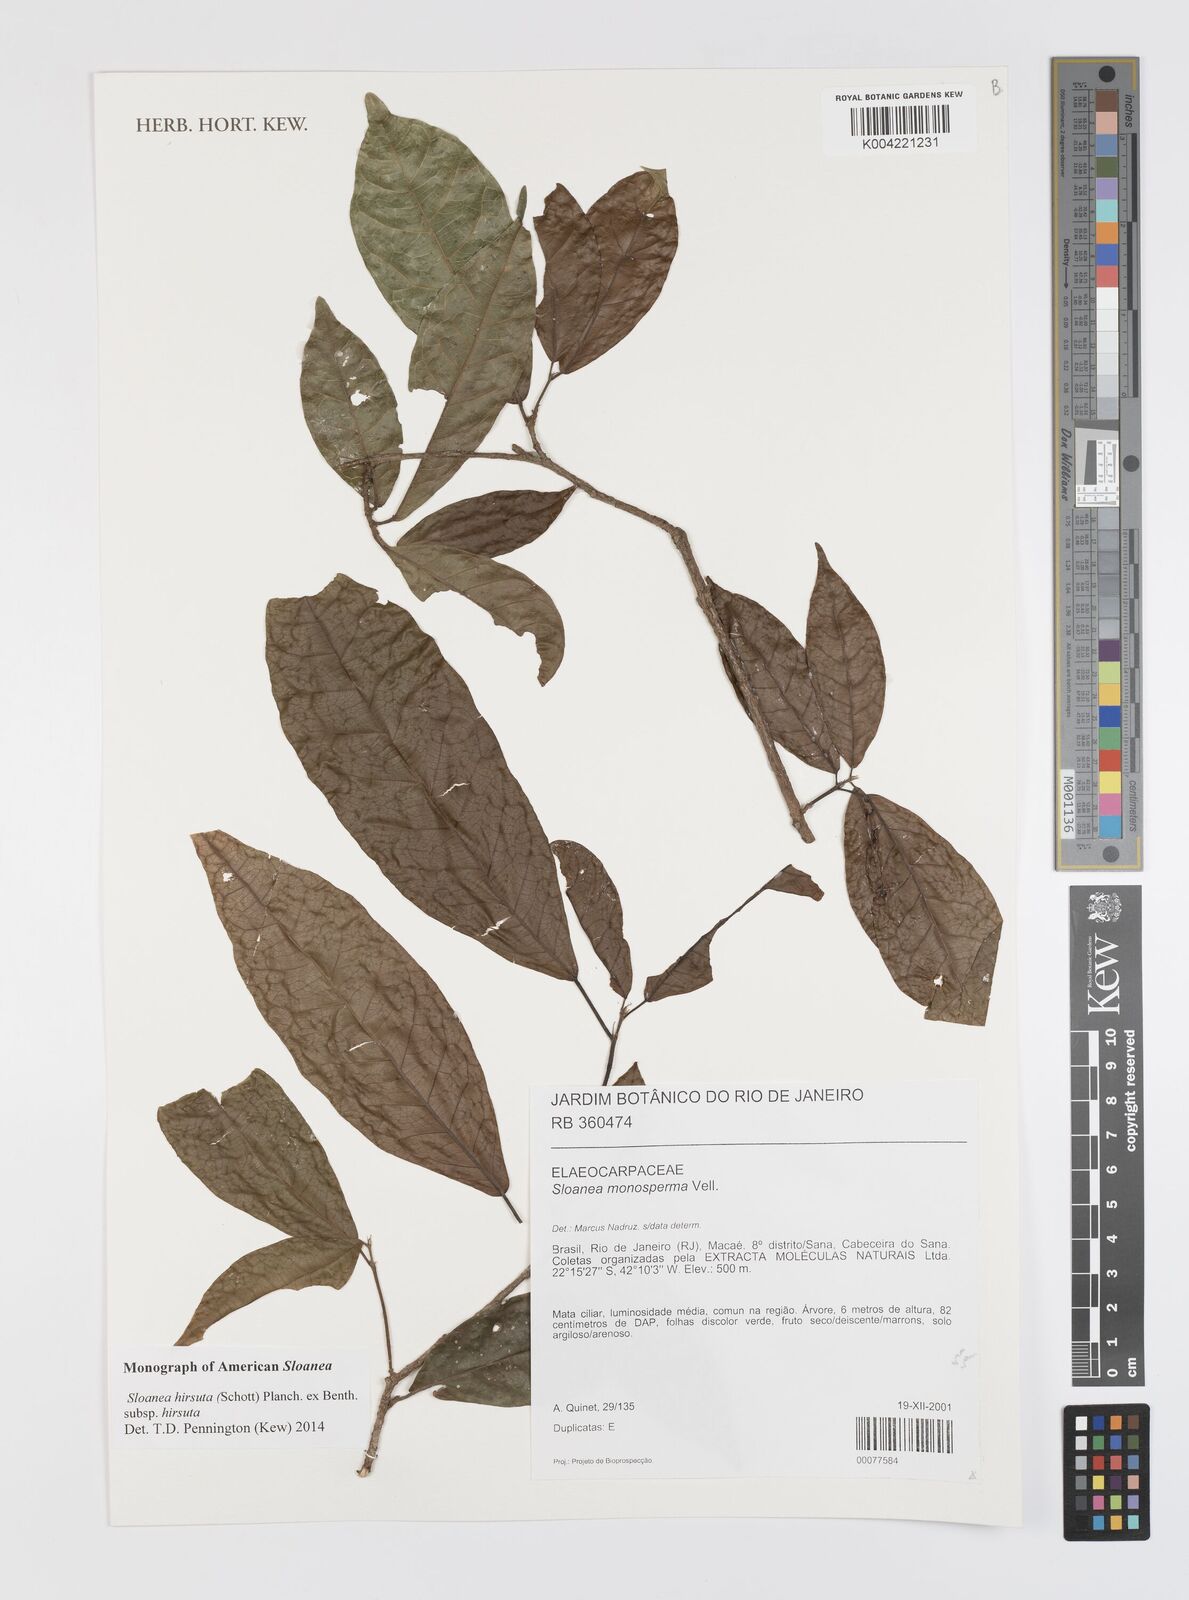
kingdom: Plantae
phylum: Tracheophyta
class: Magnoliopsida
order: Oxalidales
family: Elaeocarpaceae
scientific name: Elaeocarpaceae
